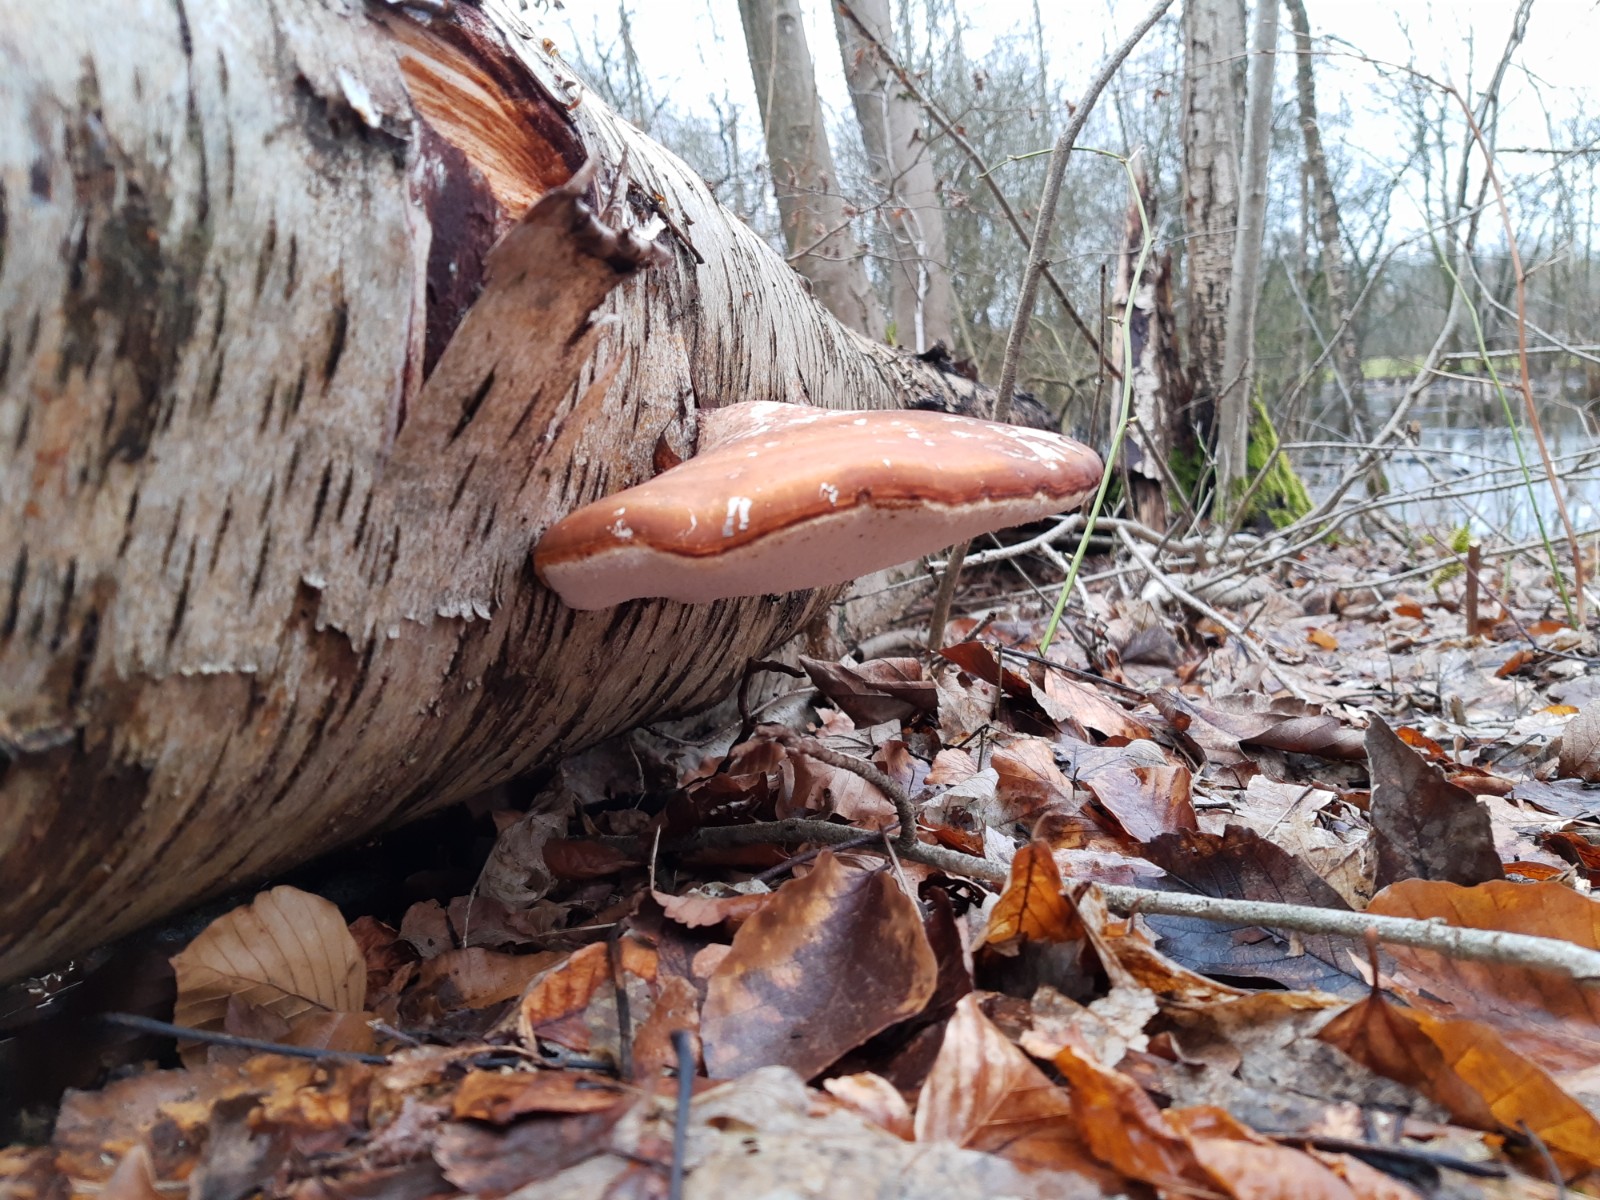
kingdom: Fungi
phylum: Basidiomycota
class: Agaricomycetes
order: Polyporales
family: Fomitopsidaceae
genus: Fomitopsis
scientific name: Fomitopsis betulina
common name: birkeporesvamp
